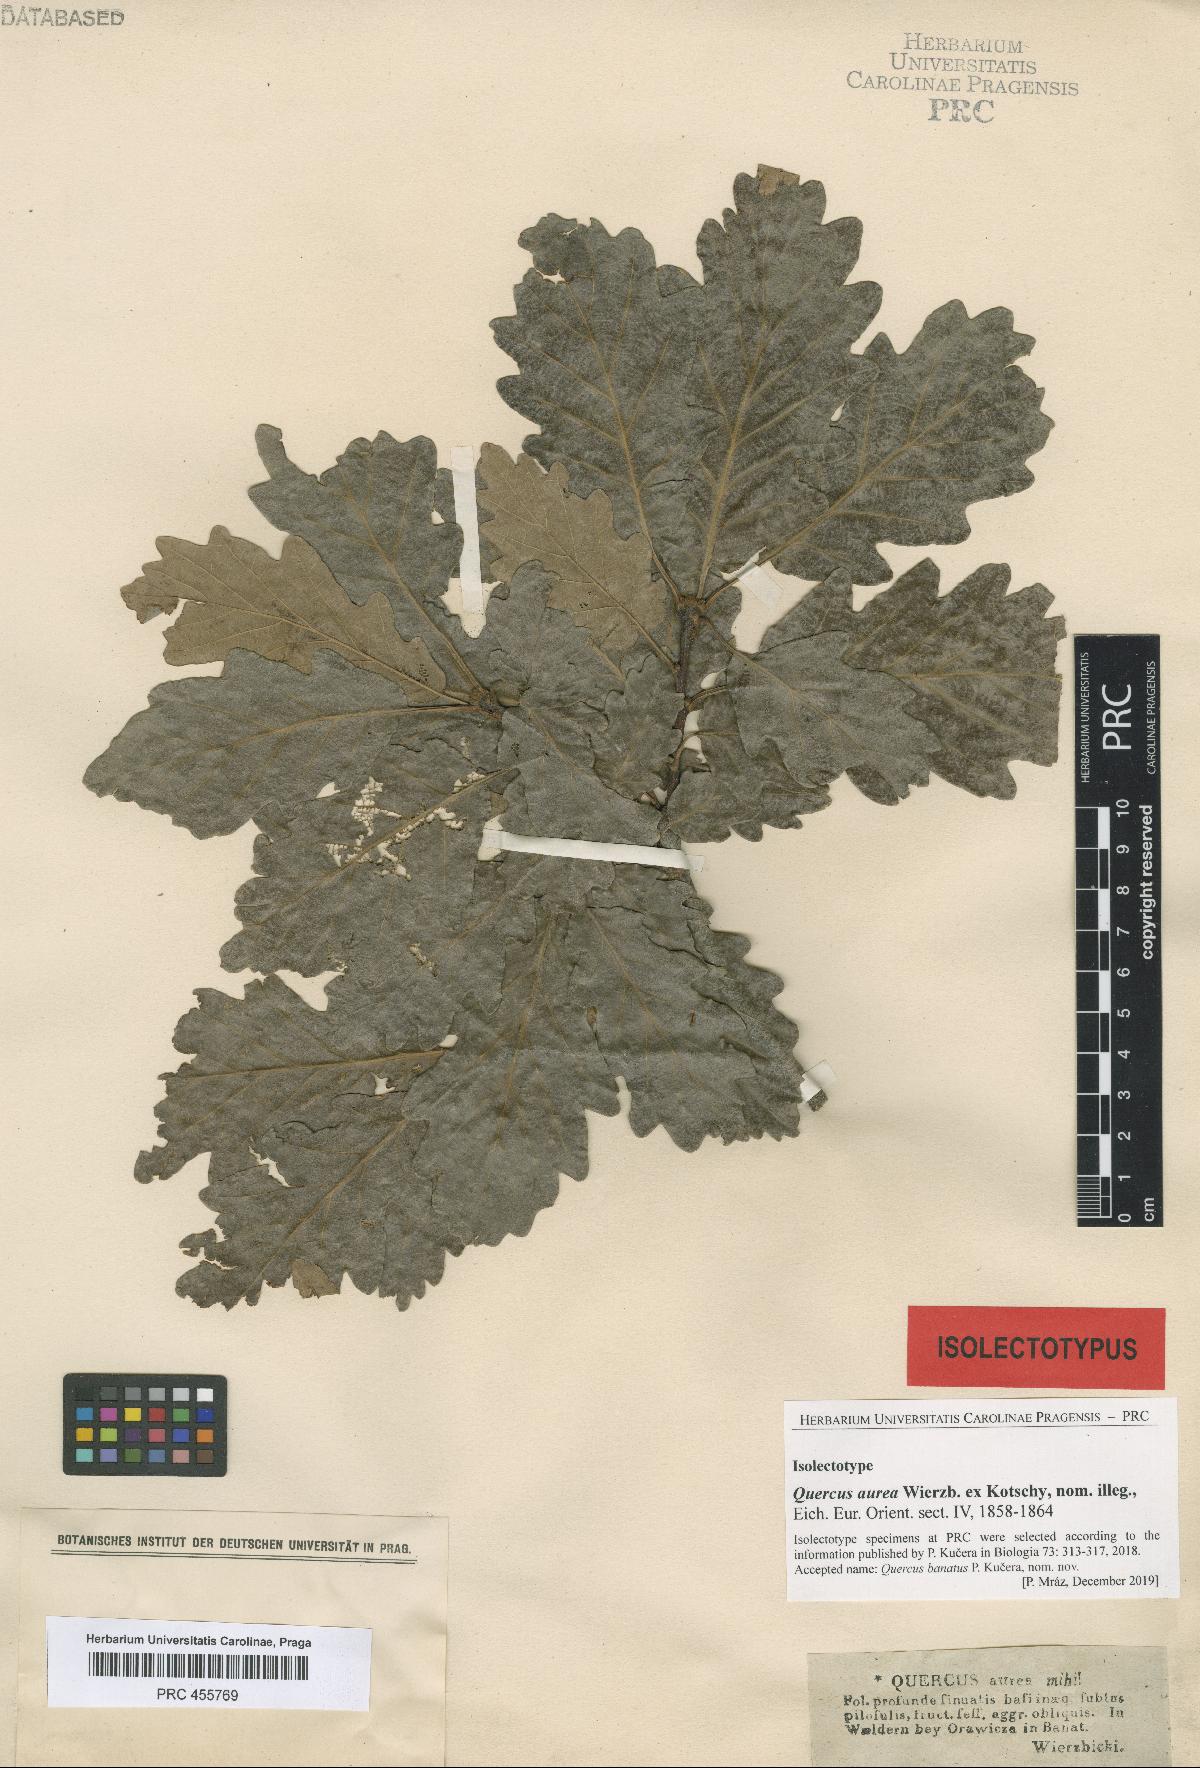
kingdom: Plantae
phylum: Tracheophyta
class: Magnoliopsida
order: Fagales
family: Fagaceae
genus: Quercus
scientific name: Quercus aurea
